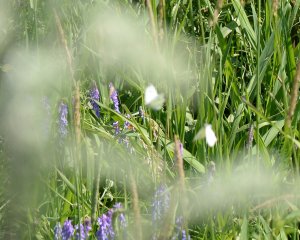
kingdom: Animalia
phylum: Arthropoda
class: Insecta
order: Lepidoptera
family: Pieridae
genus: Pieris
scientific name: Pieris rapae
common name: Cabbage White
